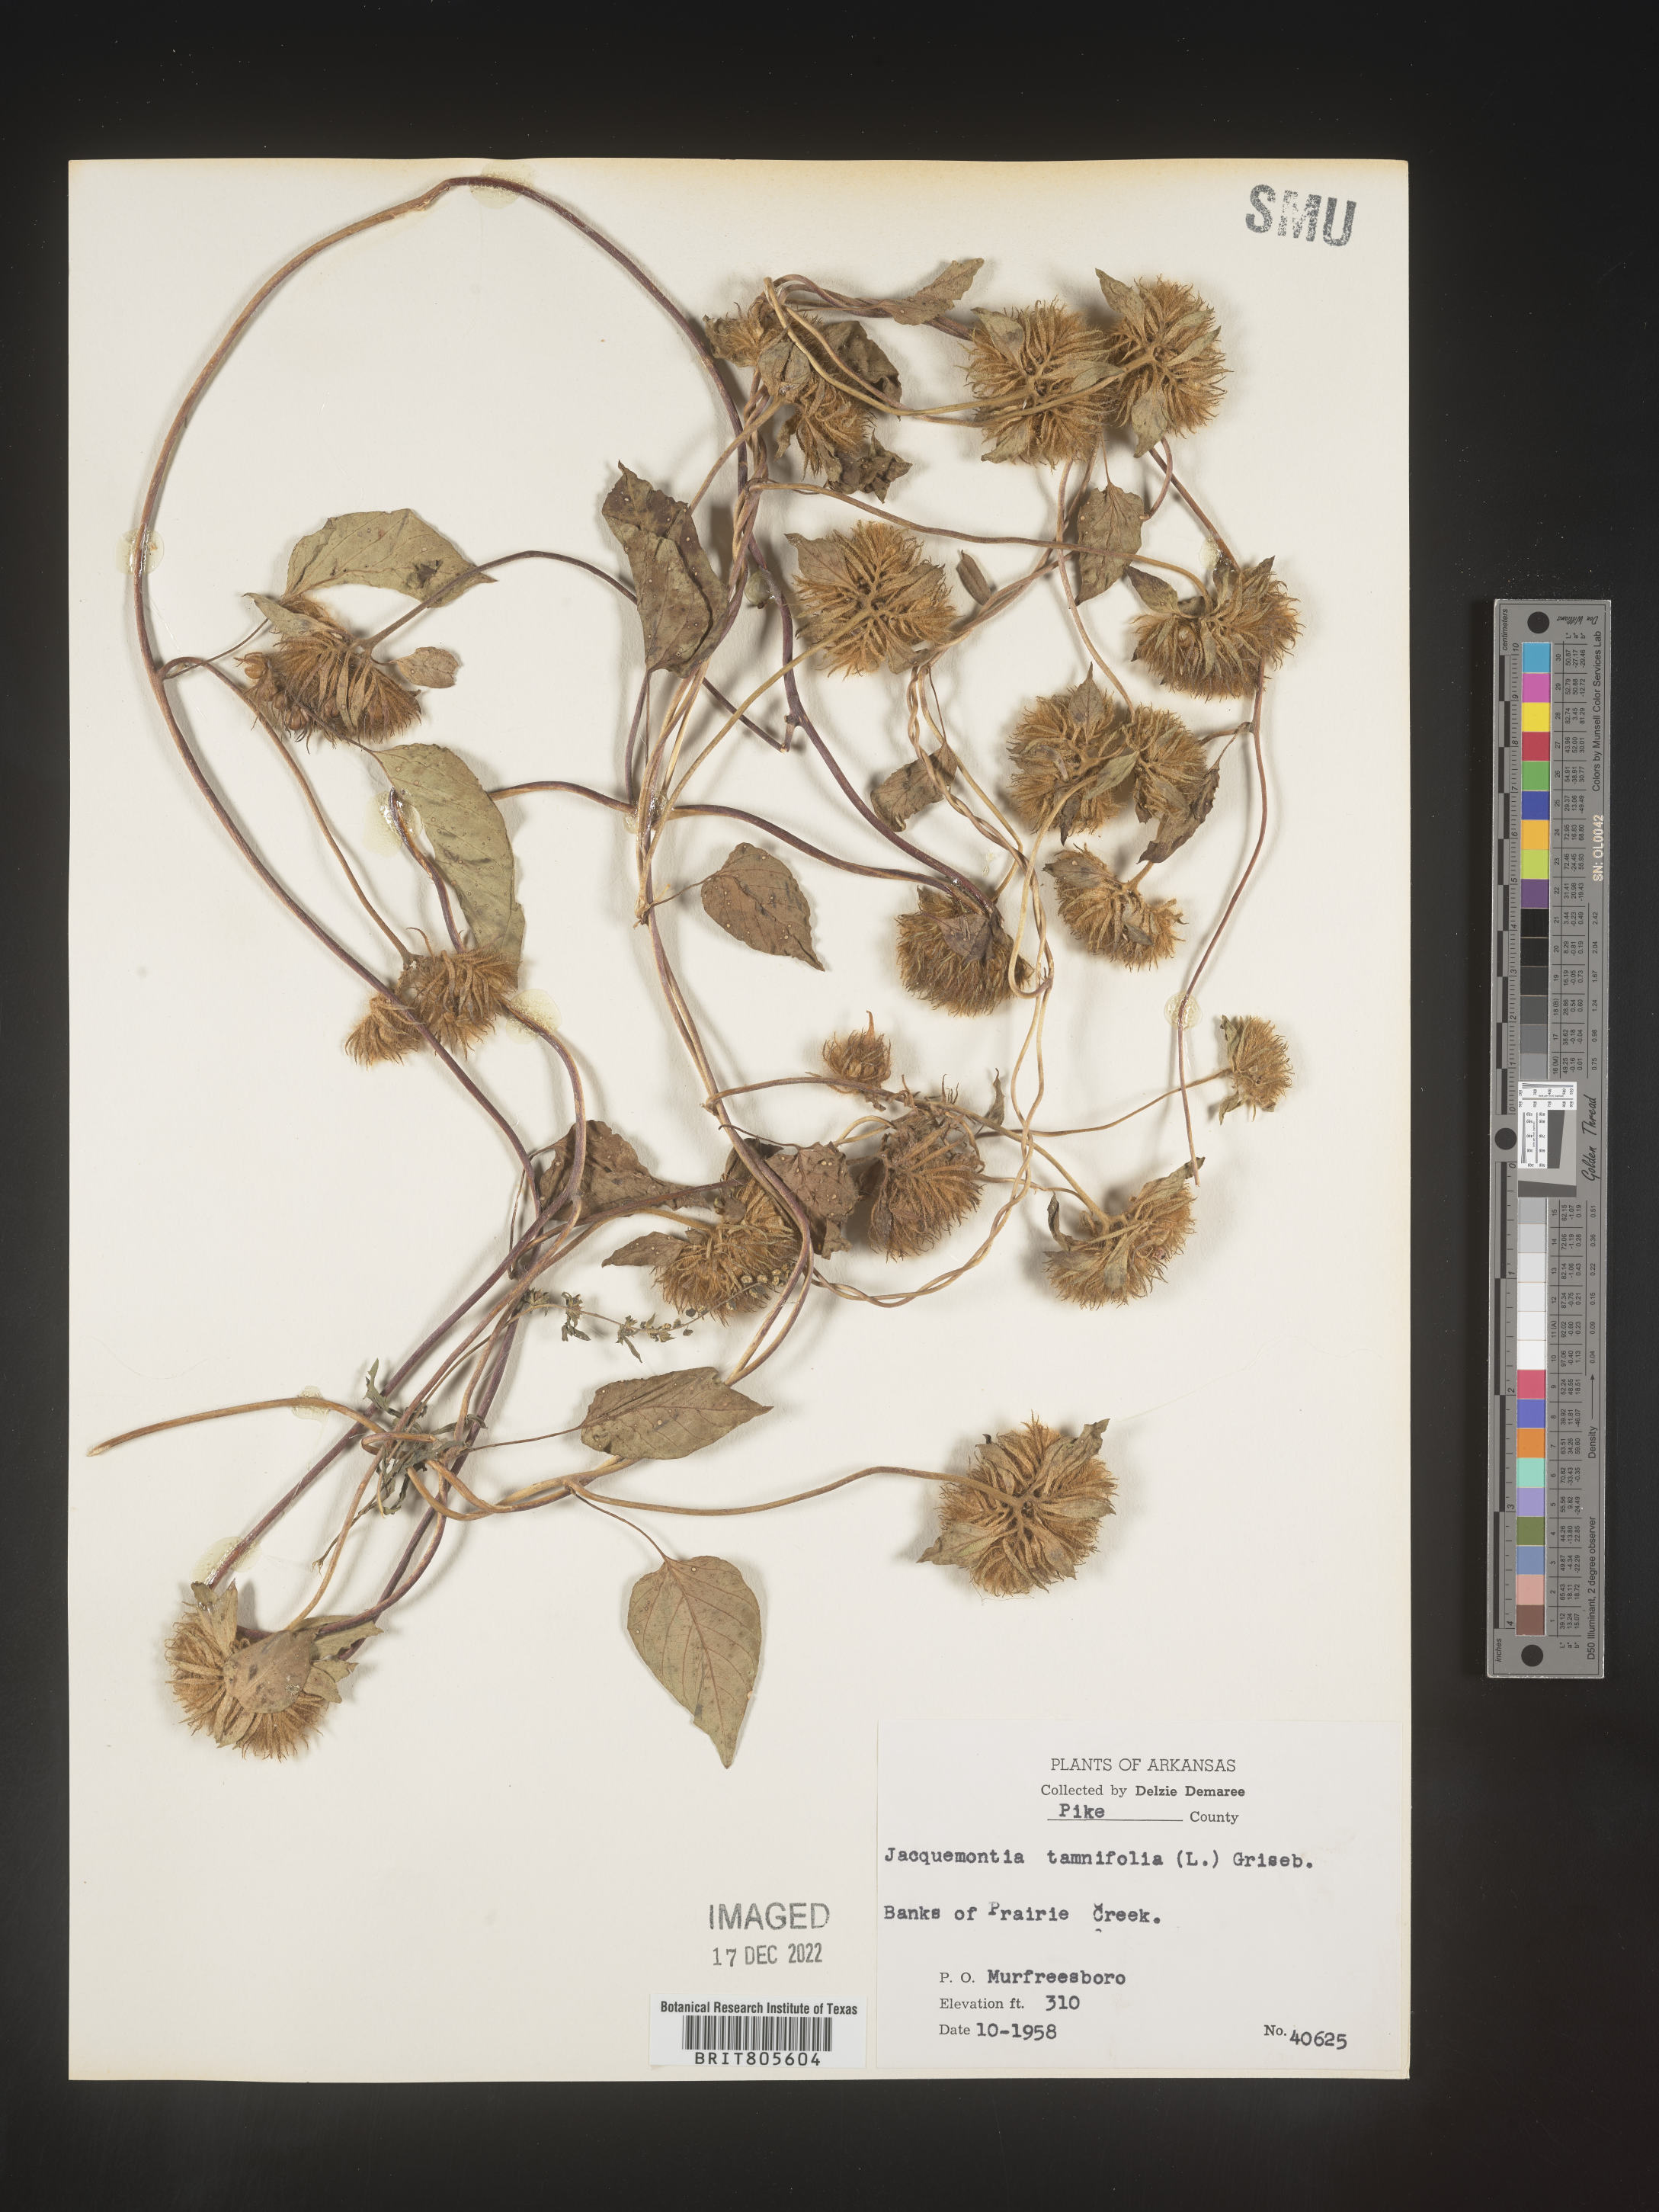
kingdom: Plantae
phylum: Tracheophyta
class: Magnoliopsida
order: Solanales
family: Convolvulaceae
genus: Jacquemontia
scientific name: Jacquemontia tamnifolia
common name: Hairy clustervine
